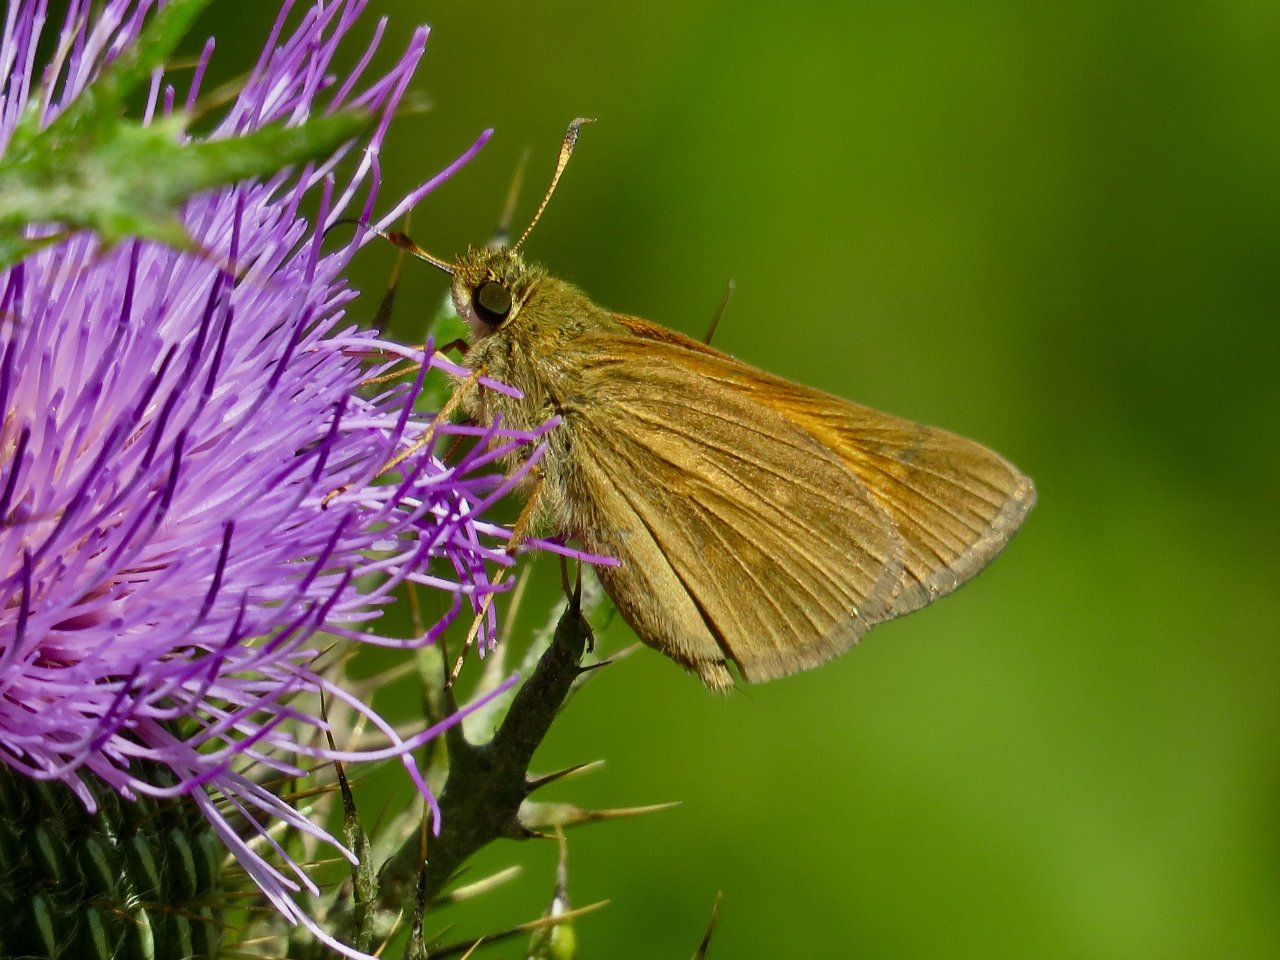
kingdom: Animalia
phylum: Arthropoda
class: Insecta
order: Lepidoptera
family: Hesperiidae
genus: Poanes
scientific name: Poanes aaroni
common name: Aaron's Skipper
